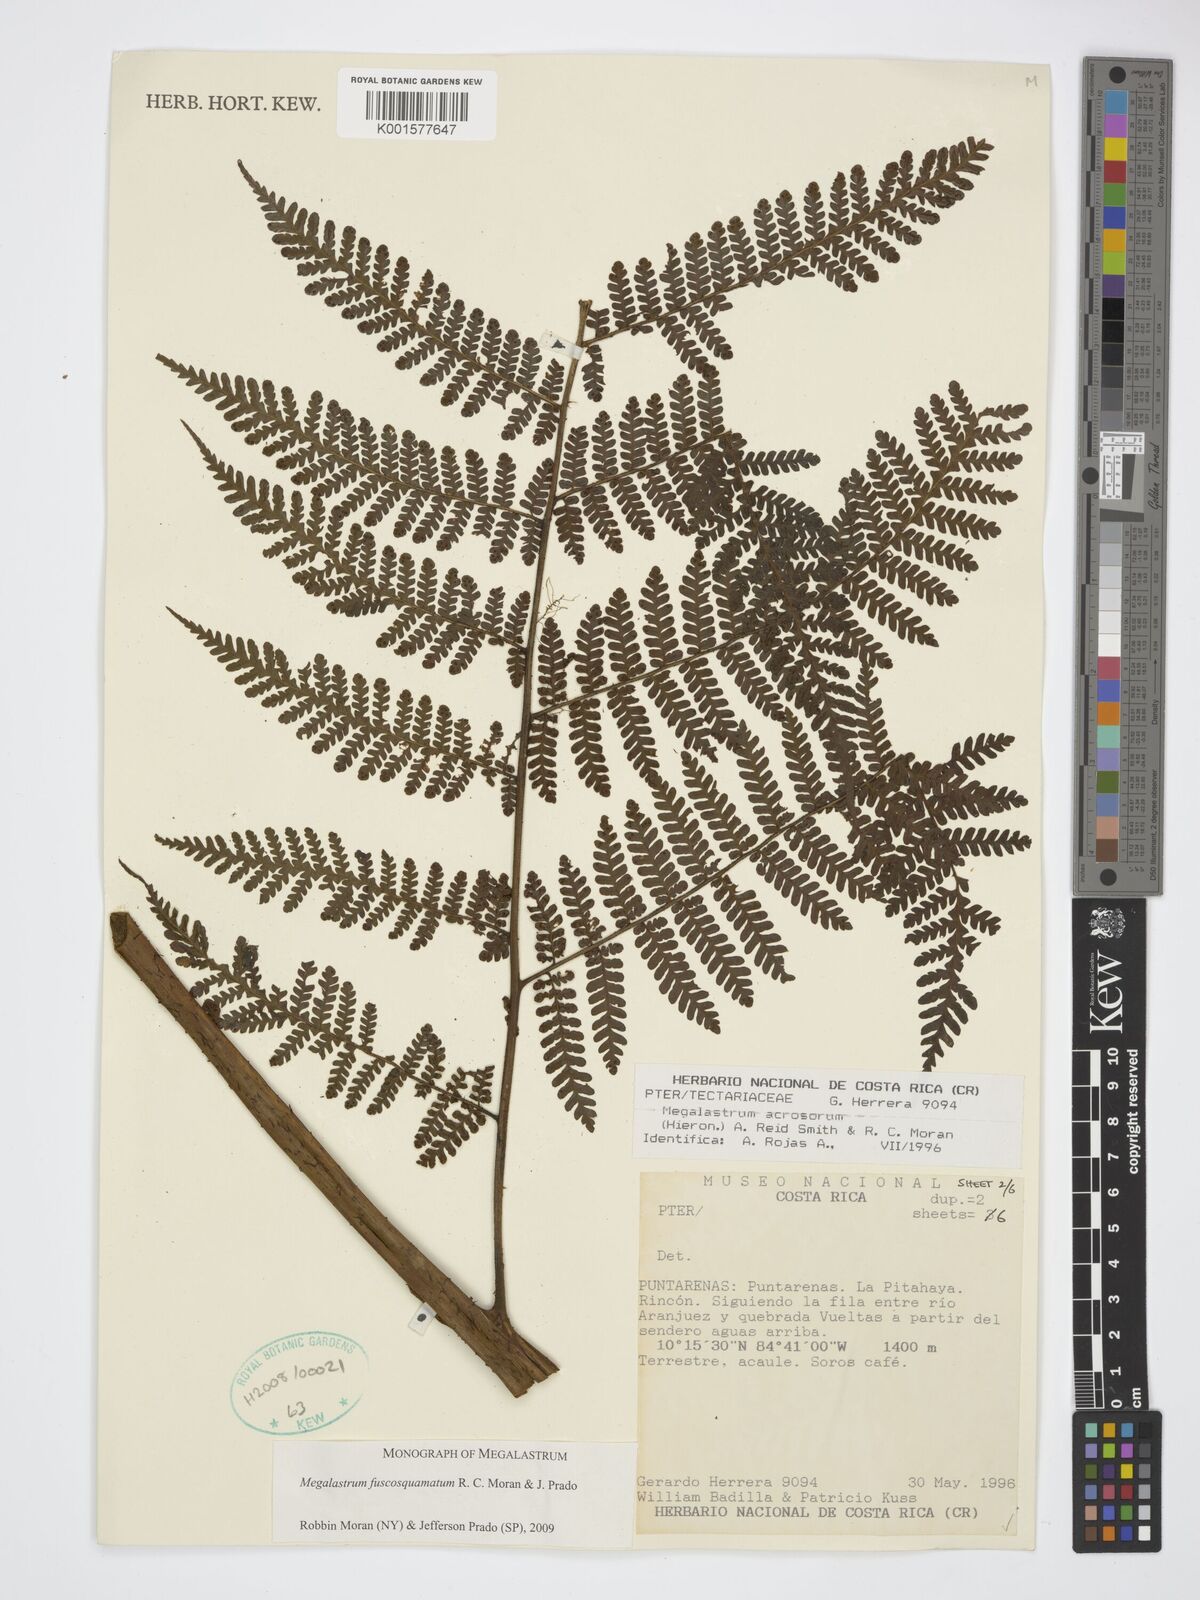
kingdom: Plantae
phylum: Tracheophyta
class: Polypodiopsida
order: Polypodiales
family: Dryopteridaceae
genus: Megalastrum
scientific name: Megalastrum apicale
